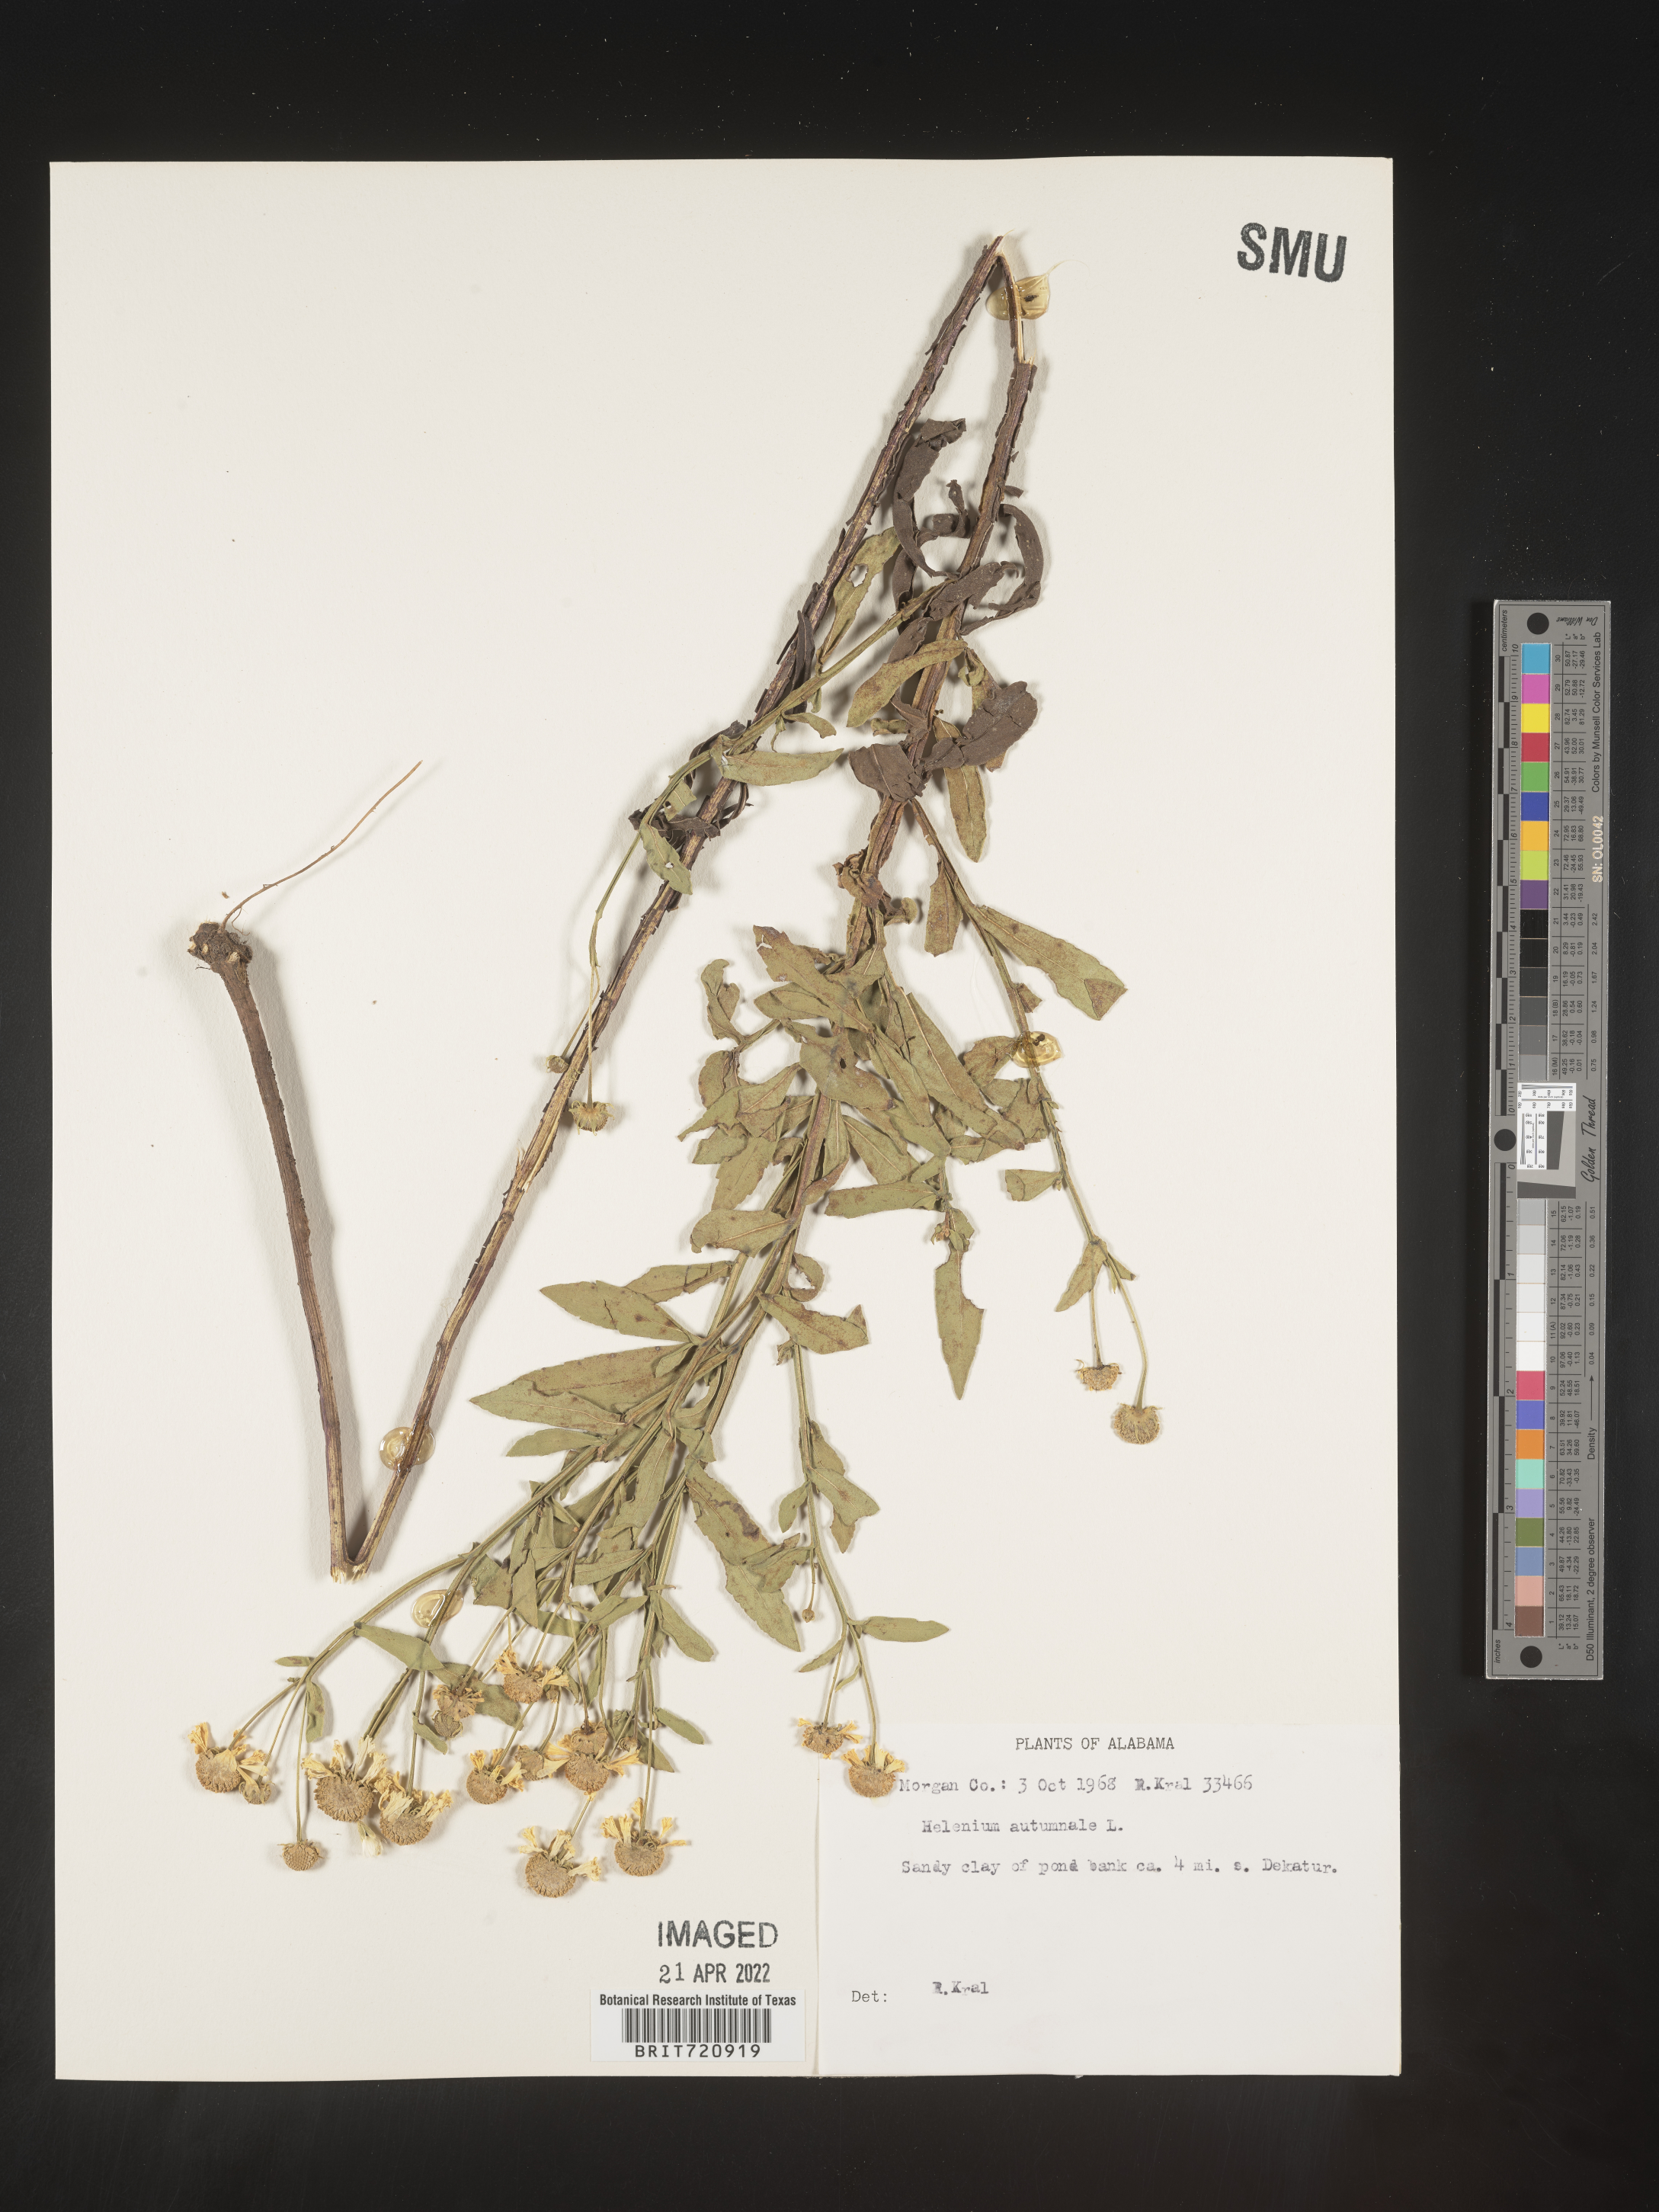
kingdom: Plantae
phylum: Tracheophyta
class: Magnoliopsida
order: Asterales
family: Asteraceae
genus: Helenium
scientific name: Helenium autumnale
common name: Sneezeweed
